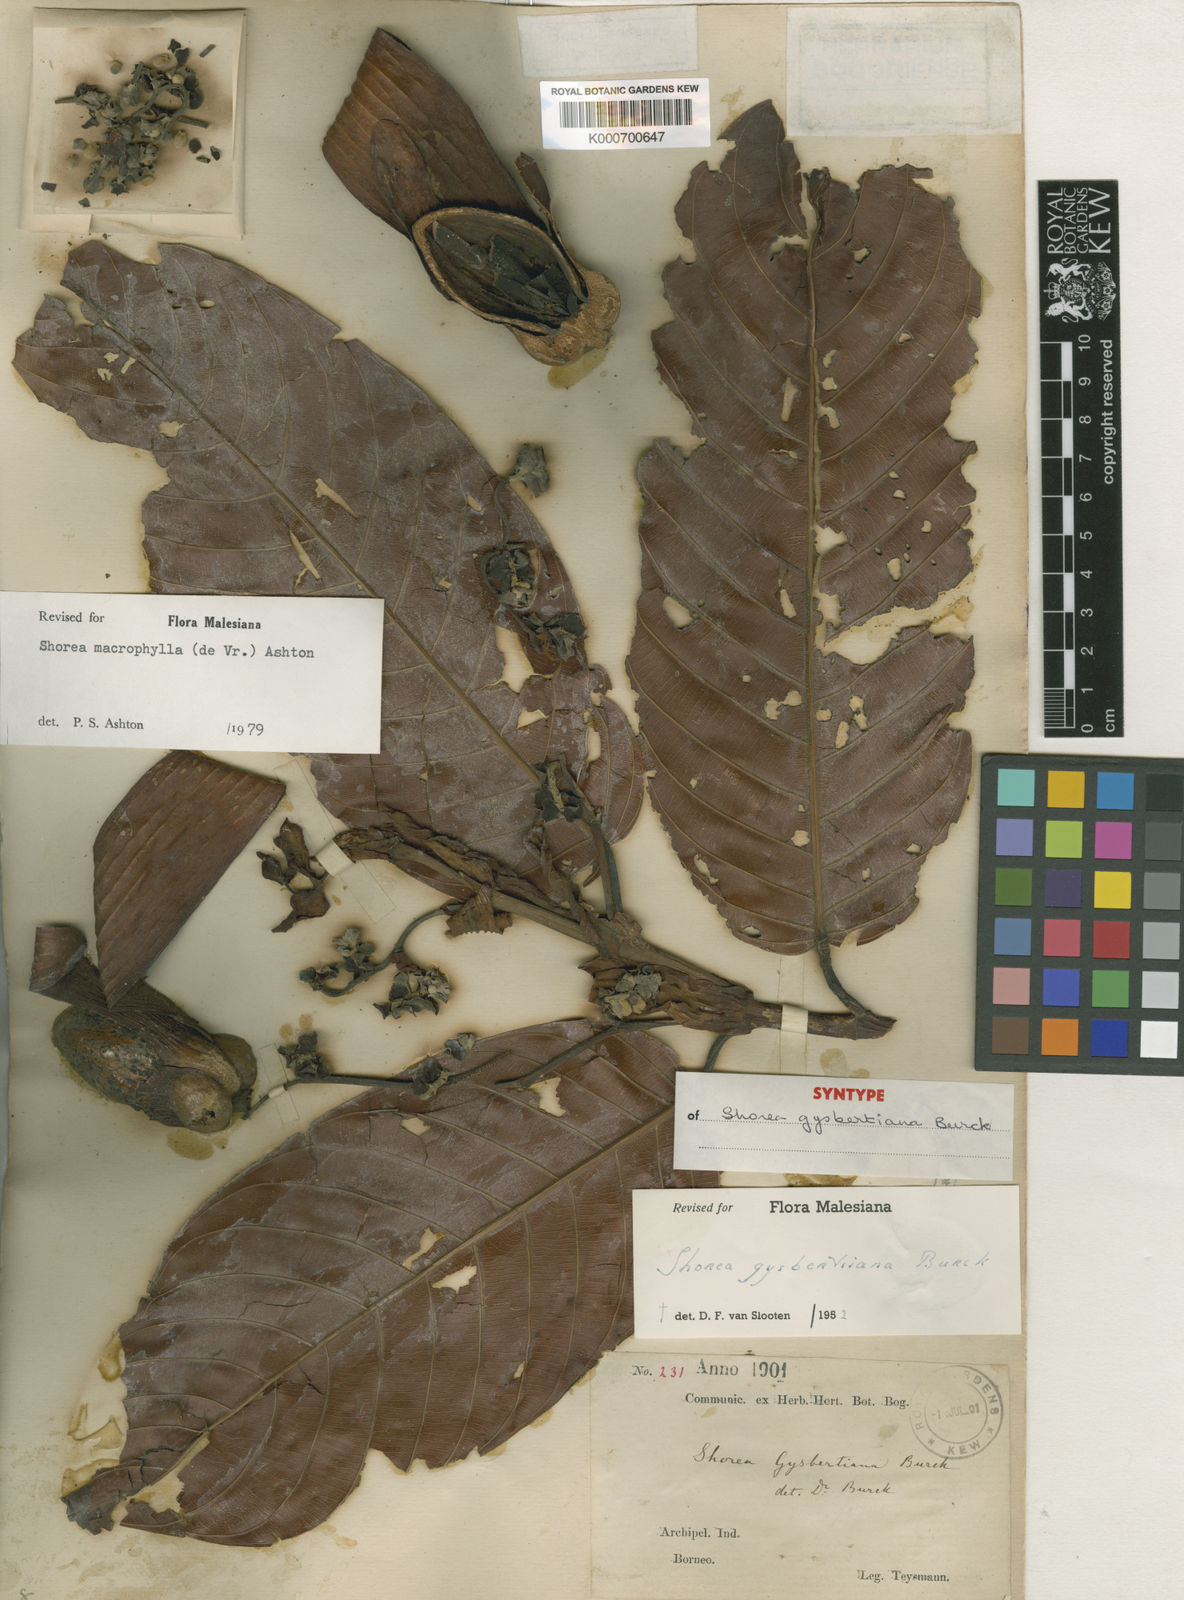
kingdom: Plantae
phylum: Tracheophyta
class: Magnoliopsida
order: Malvales
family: Dipterocarpaceae
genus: Shorea
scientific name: Shorea macrophylla
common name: Light red meranti
